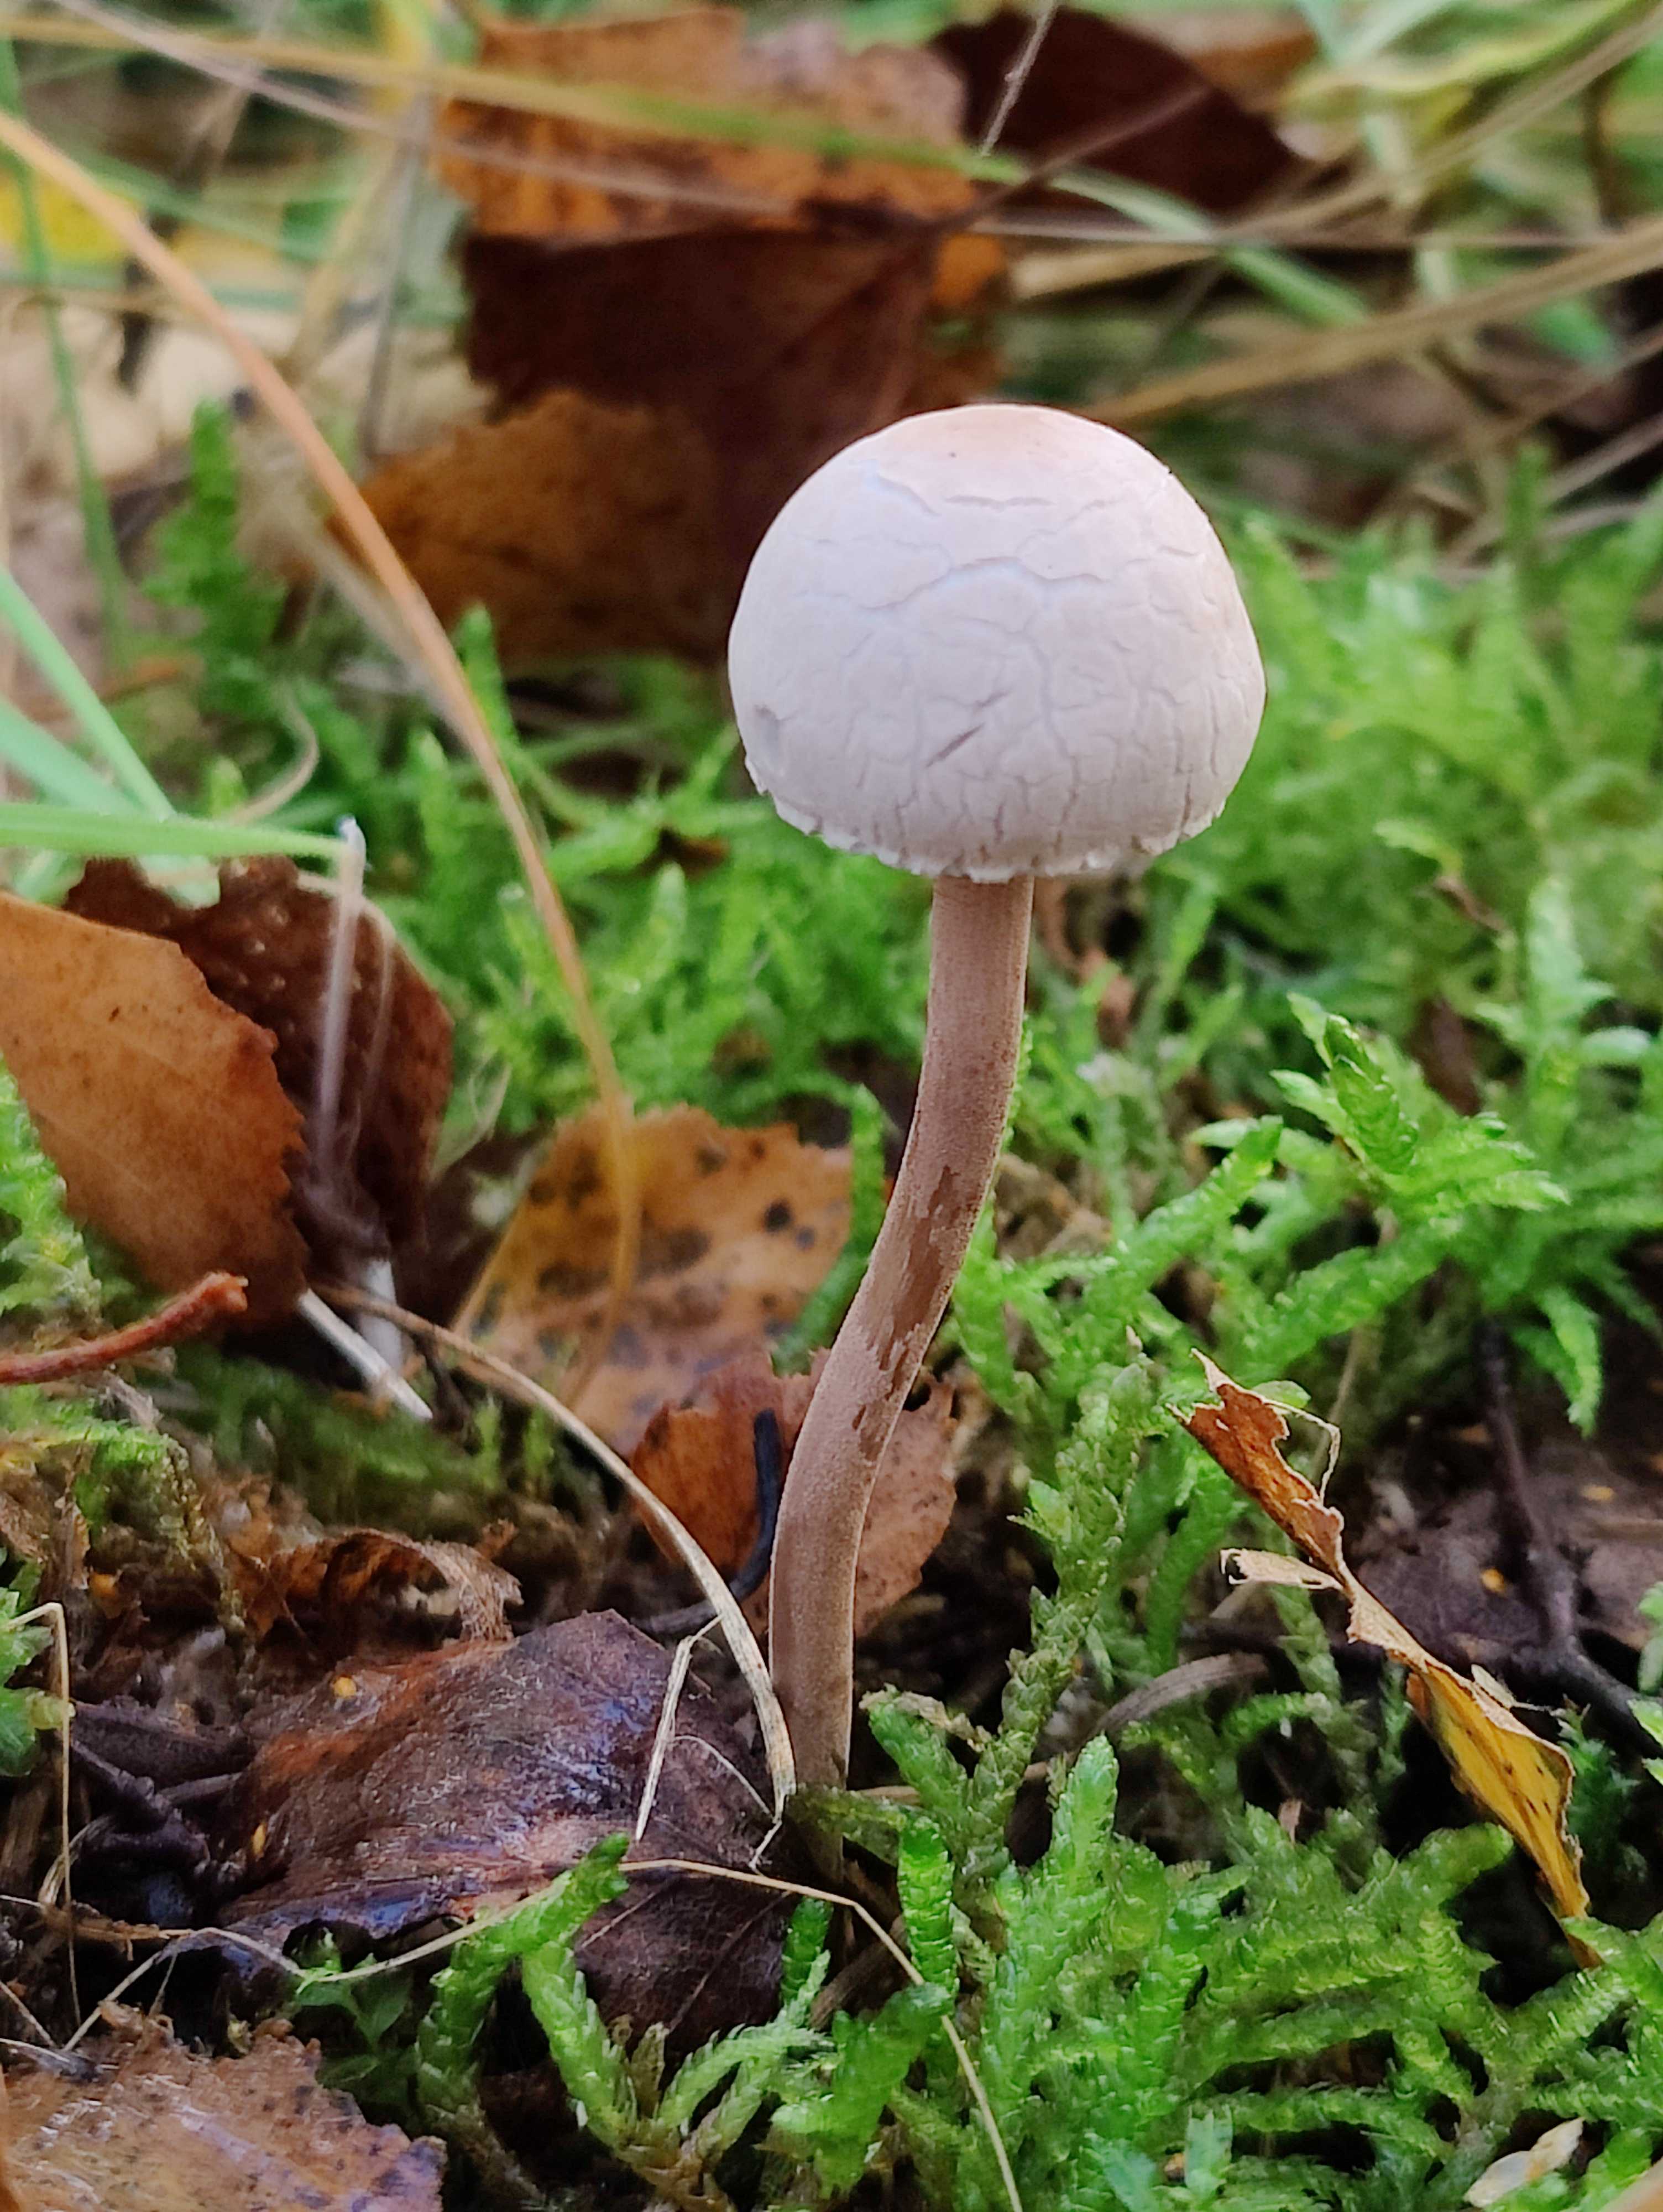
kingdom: Fungi
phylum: Basidiomycota
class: Agaricomycetes
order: Agaricales
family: Bolbitiaceae
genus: Panaeolus
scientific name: Panaeolus papilionaceus
